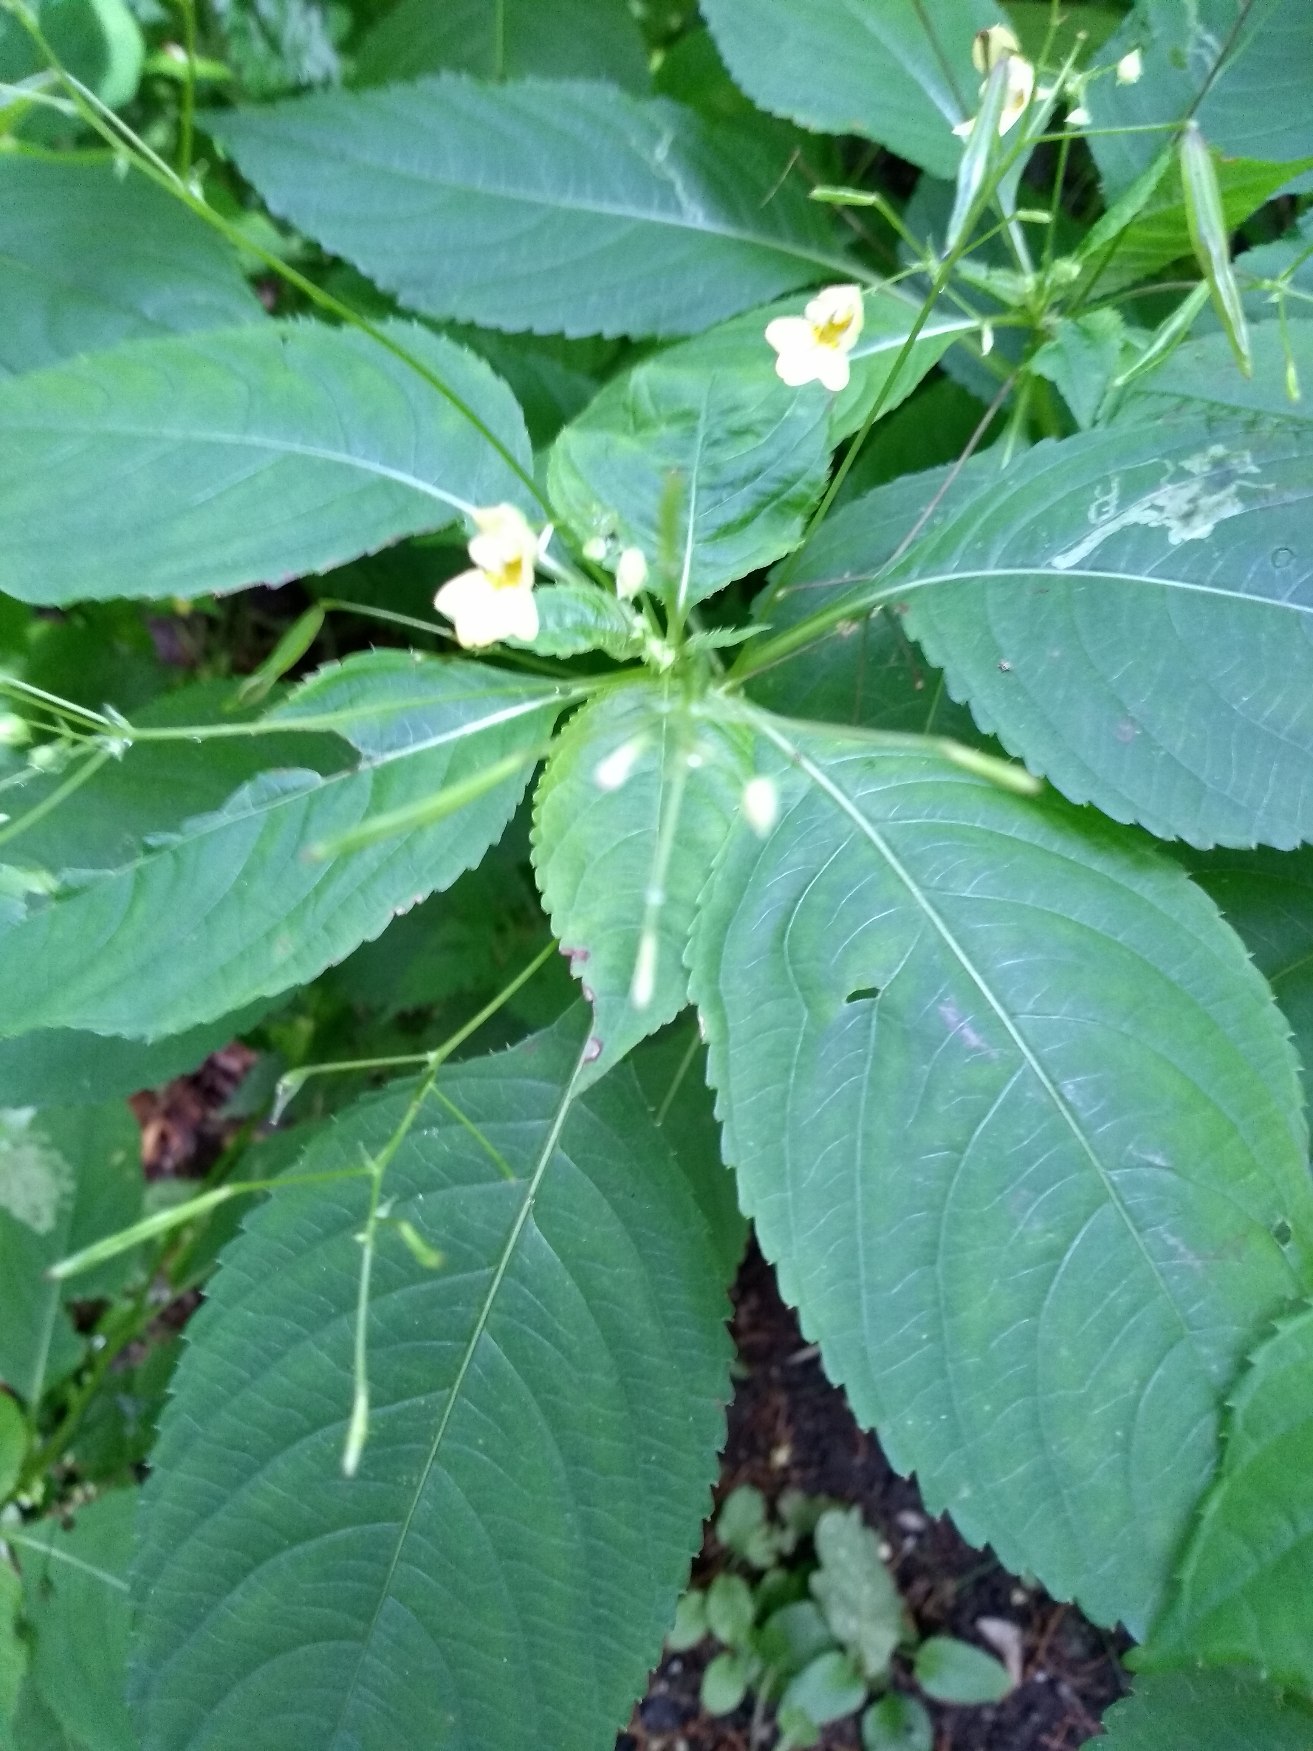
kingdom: Plantae
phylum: Tracheophyta
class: Magnoliopsida
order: Ericales
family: Balsaminaceae
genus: Impatiens
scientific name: Impatiens parviflora
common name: Småblomstret balsamin
